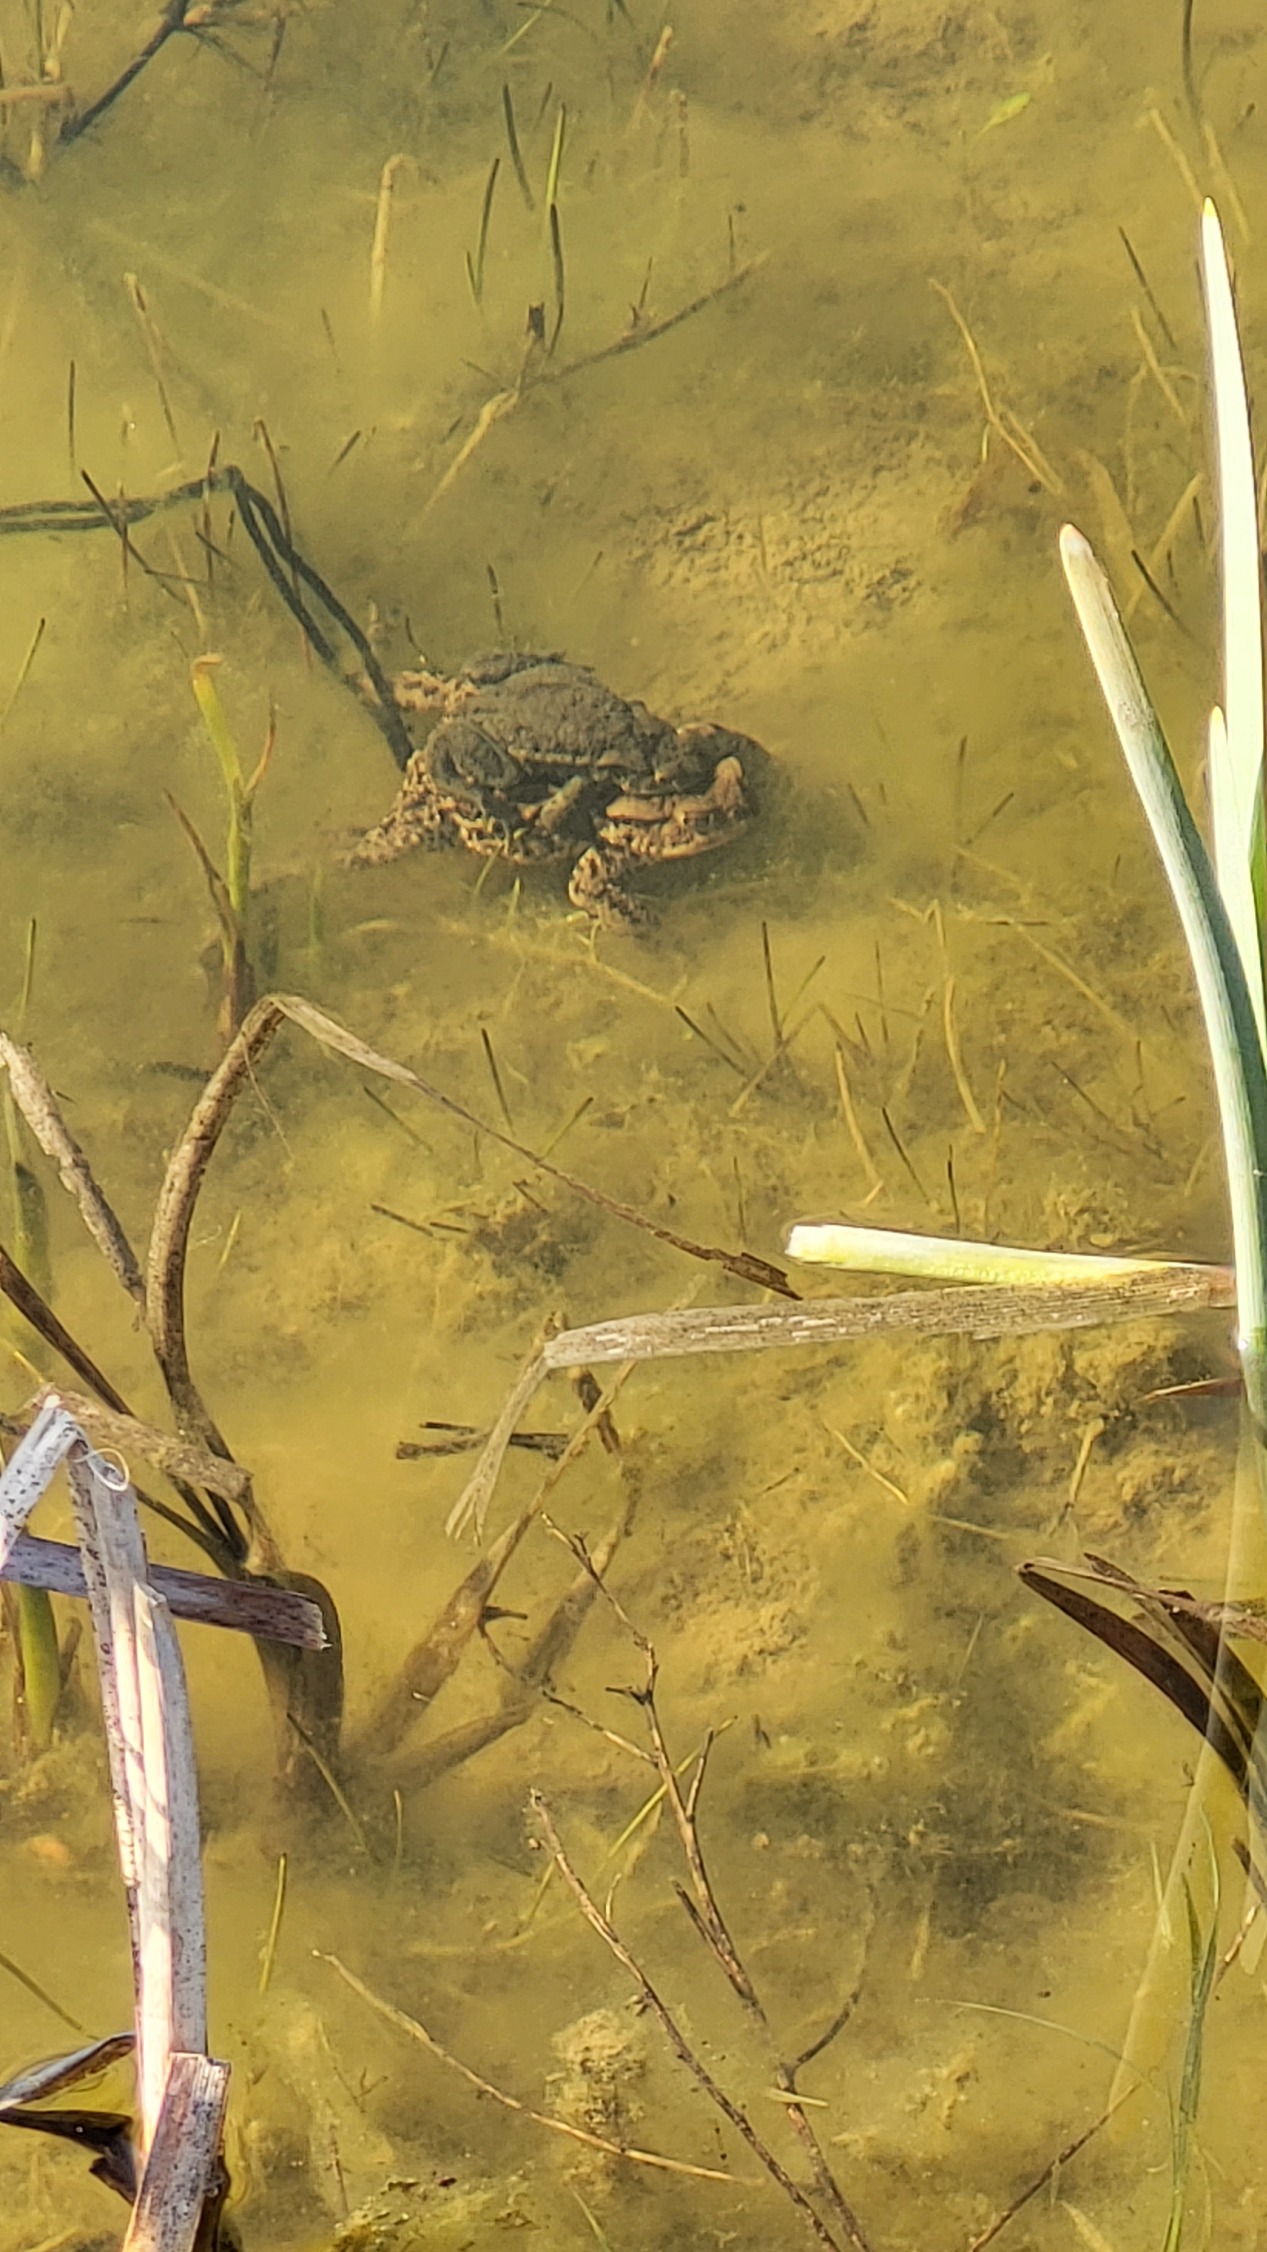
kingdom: Animalia
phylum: Chordata
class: Amphibia
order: Anura
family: Bufonidae
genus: Bufo
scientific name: Bufo bufo
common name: Skrubtudse
